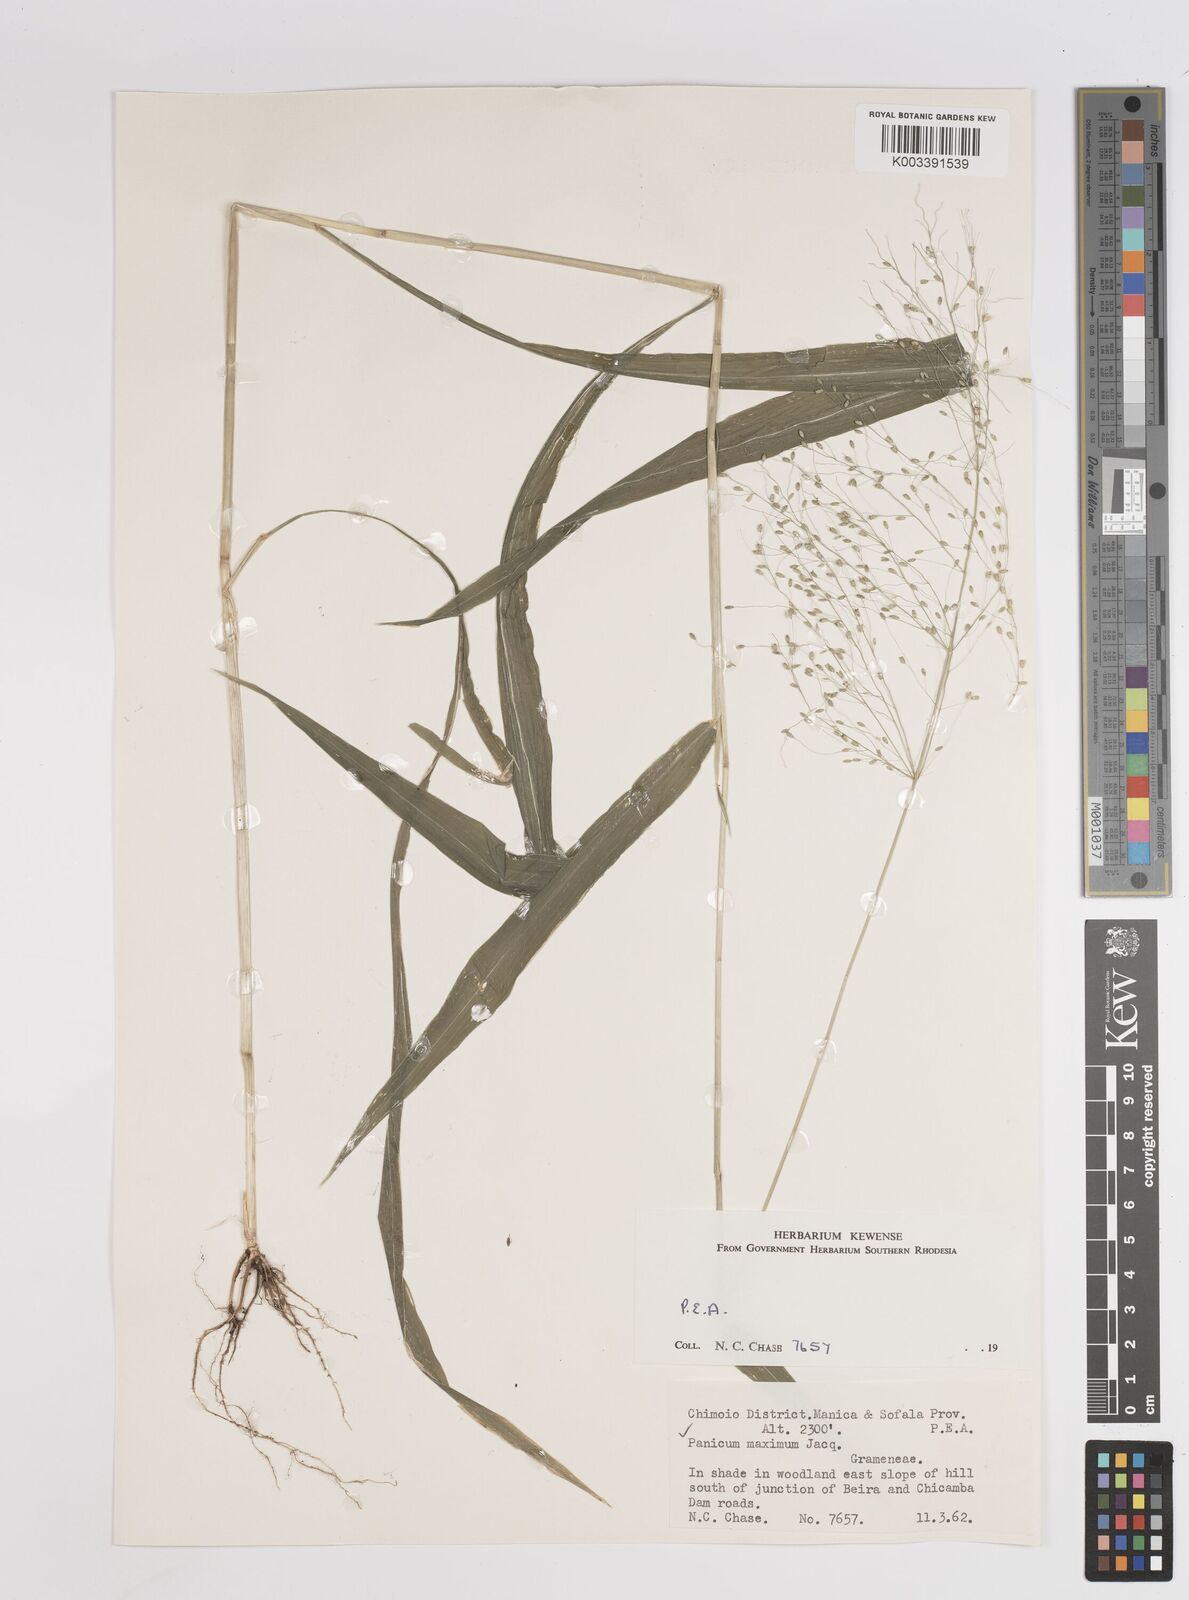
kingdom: Plantae
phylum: Tracheophyta
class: Liliopsida
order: Poales
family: Poaceae
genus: Megathyrsus
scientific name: Megathyrsus maximus
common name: Guineagrass
